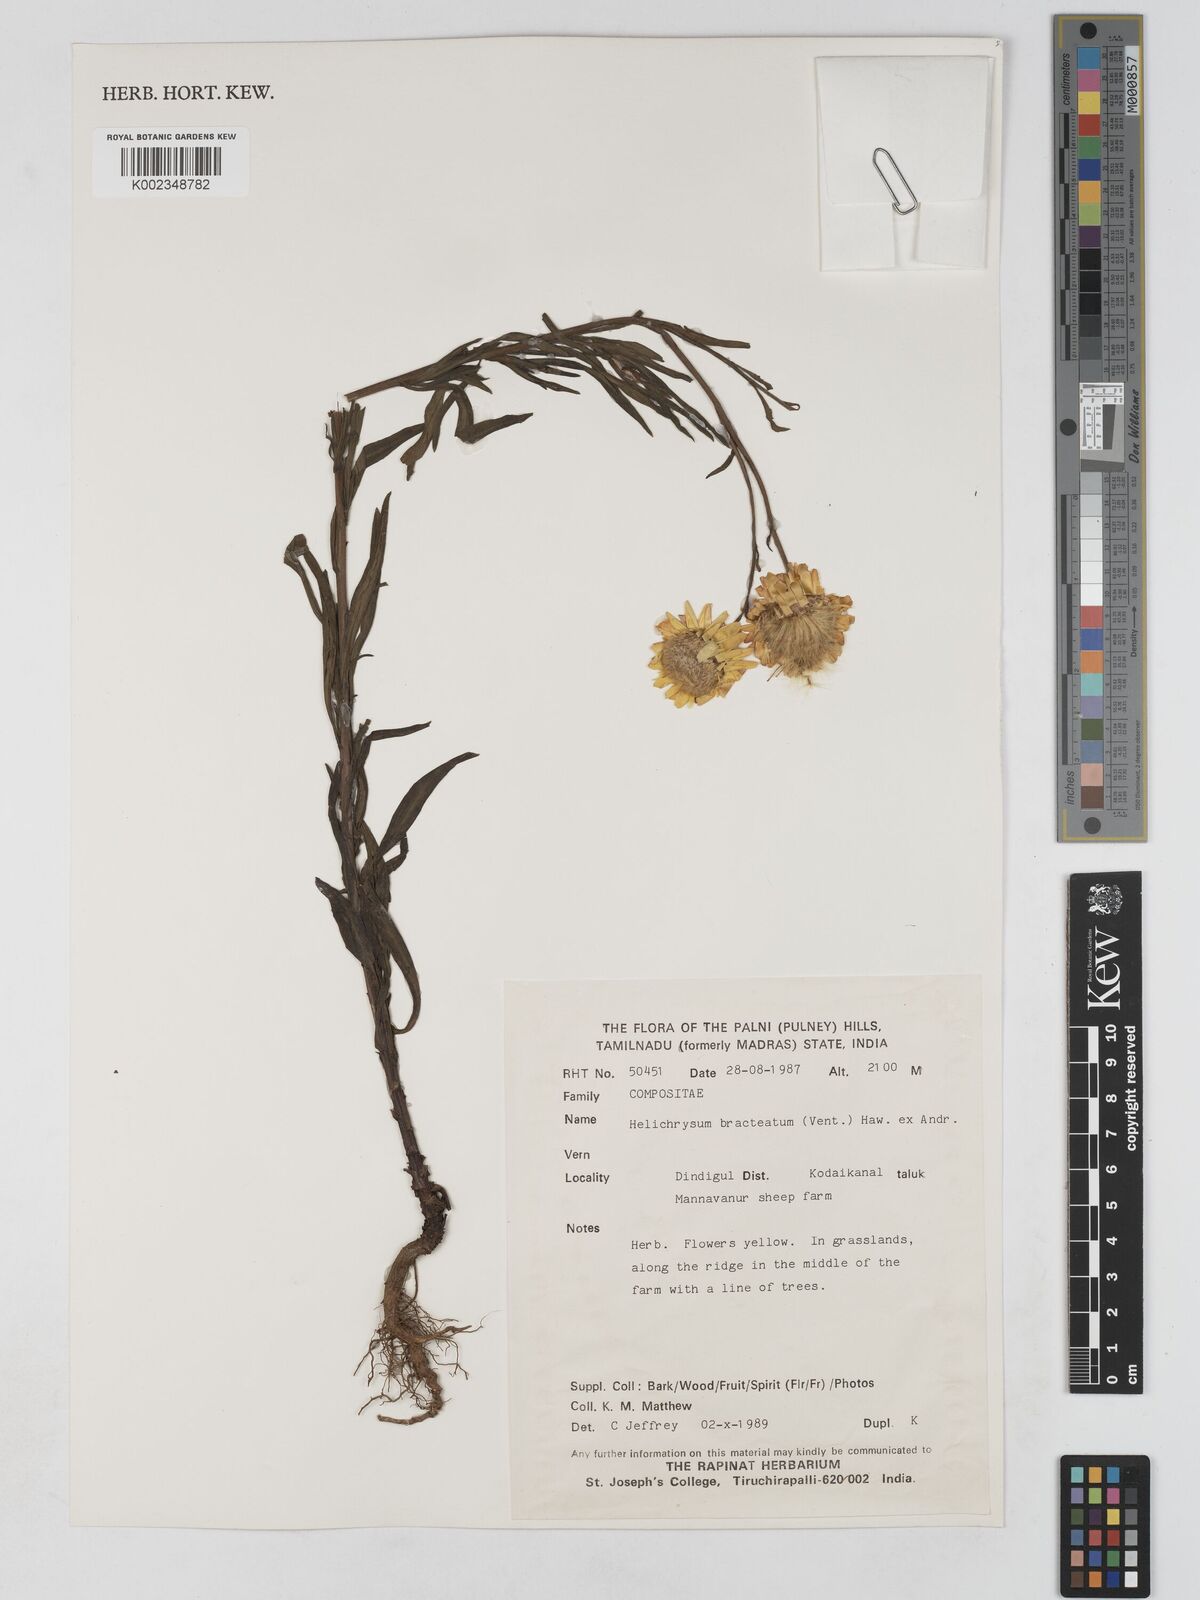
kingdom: Plantae
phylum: Tracheophyta
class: Magnoliopsida
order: Asterales
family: Asteraceae
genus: Xerochrysum
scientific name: Xerochrysum bracteatum
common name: Bracted strawflower
